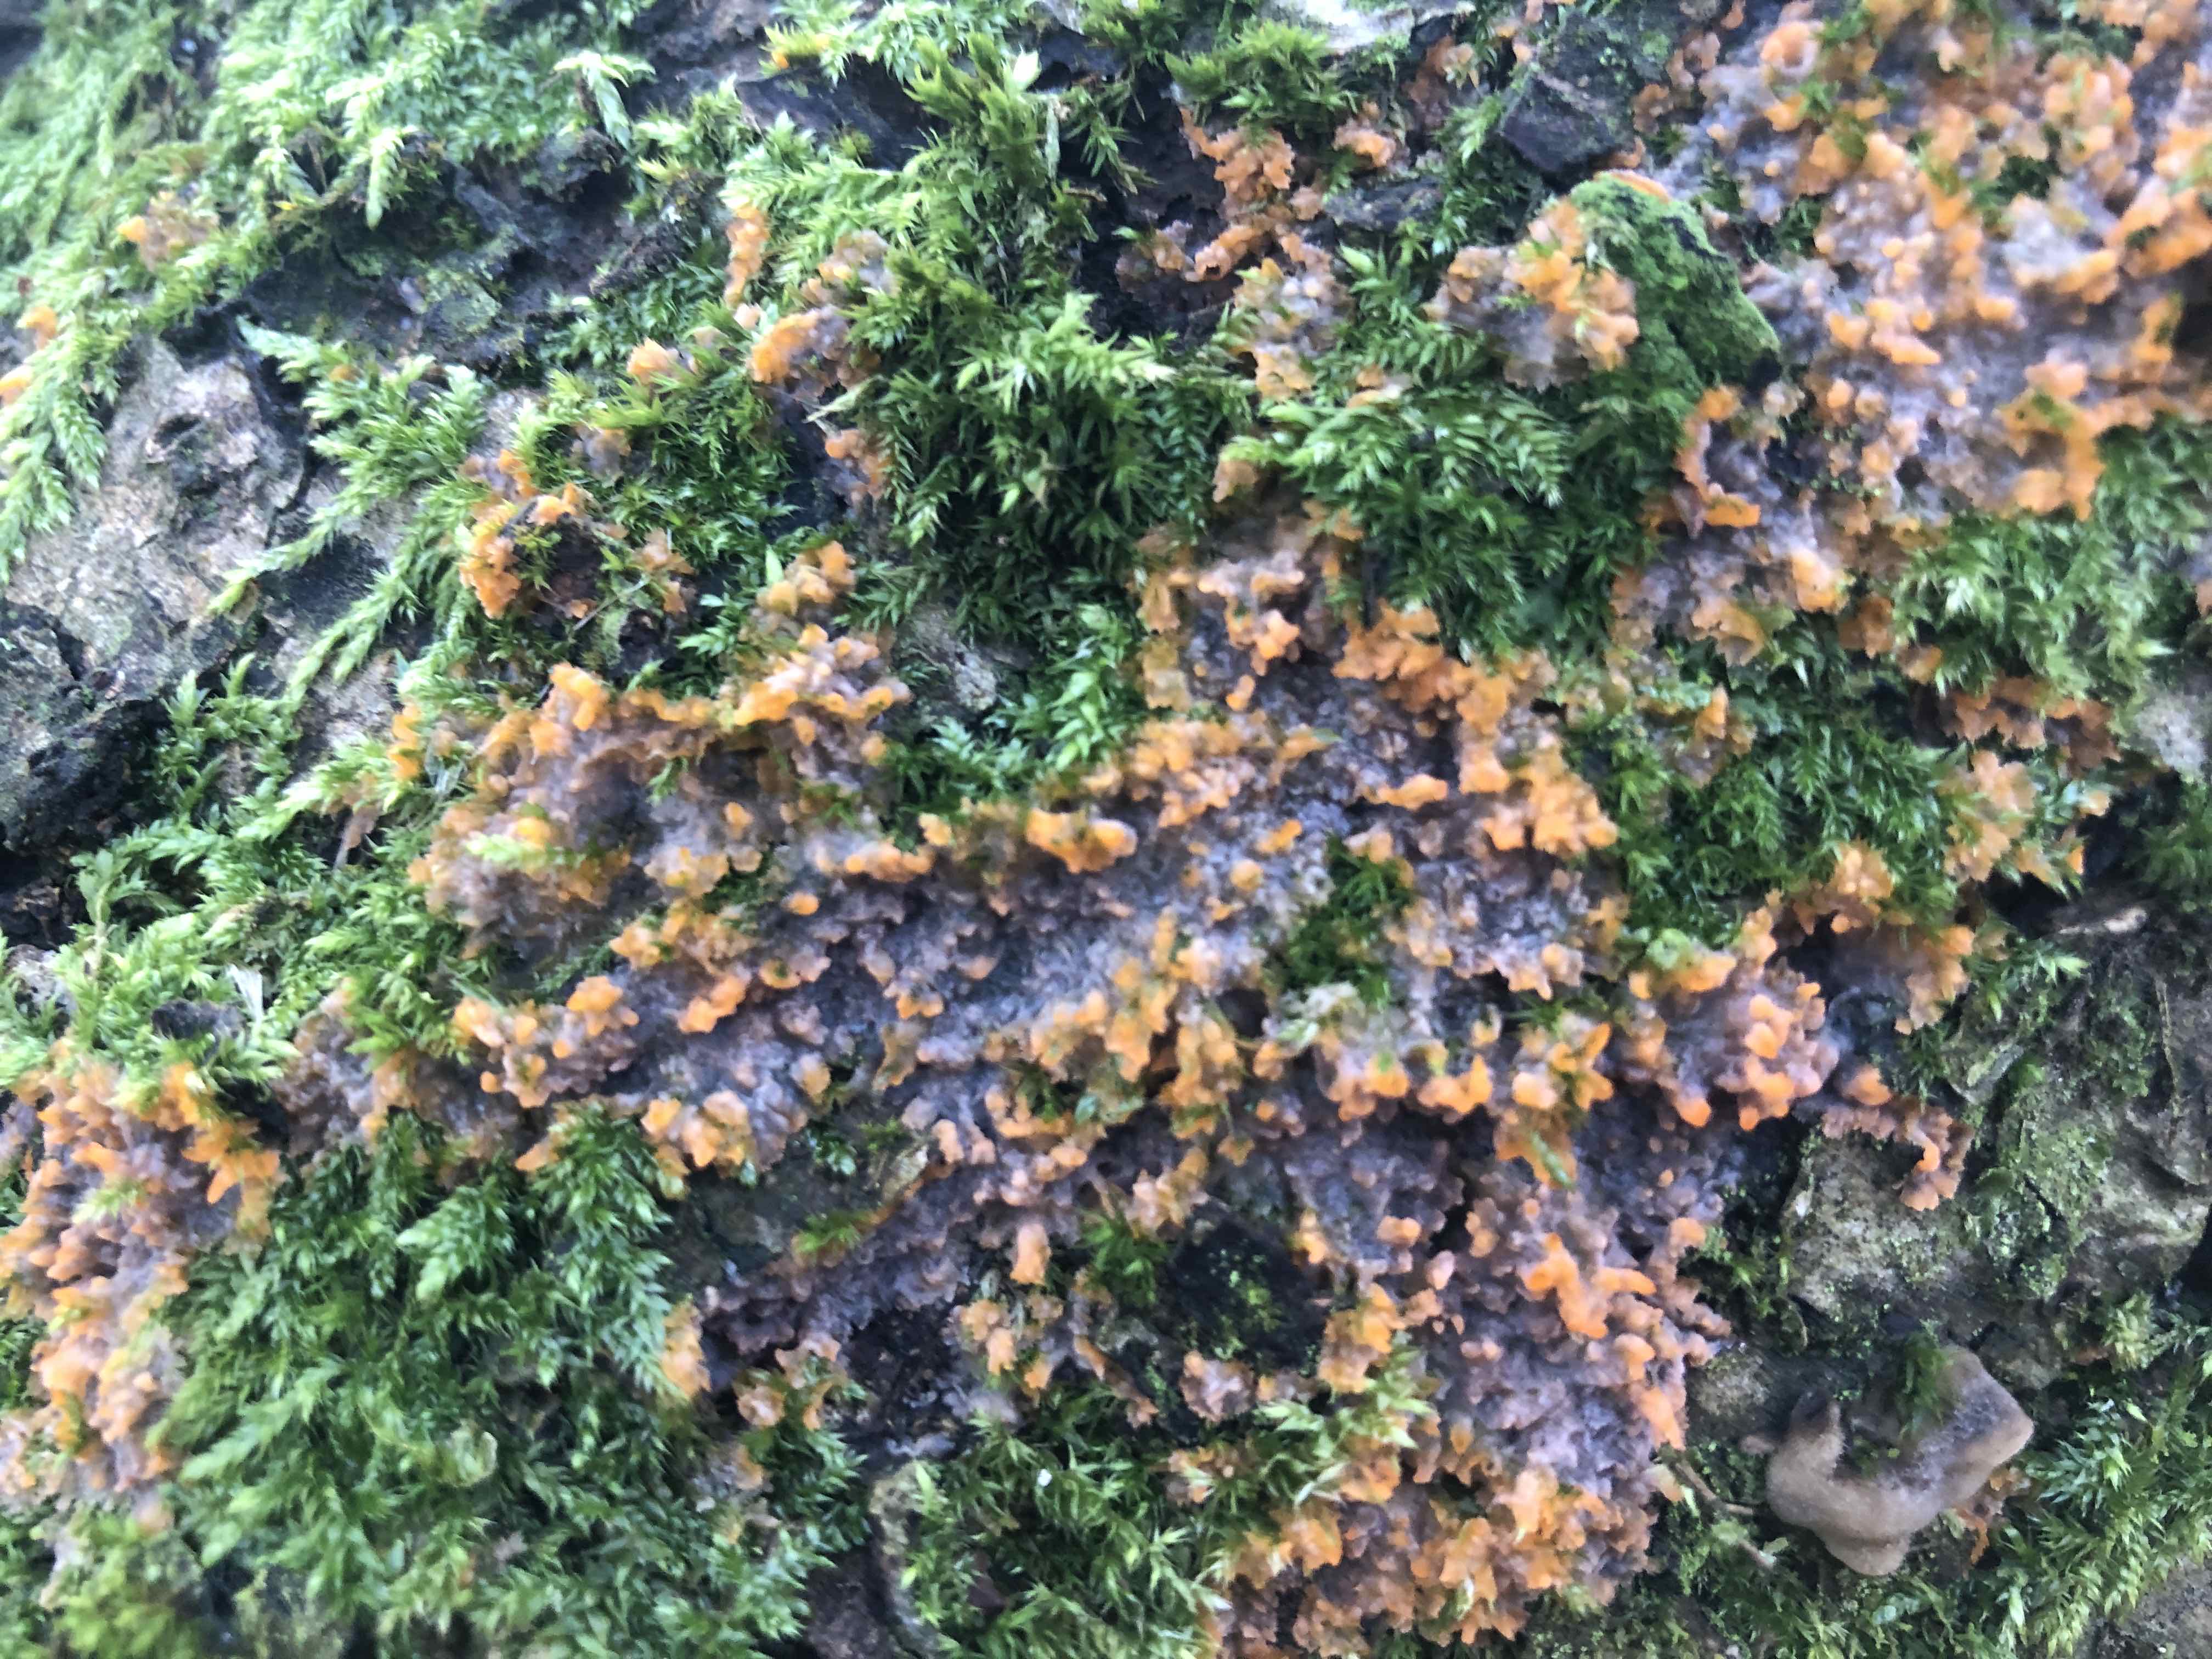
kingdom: Fungi
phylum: Basidiomycota
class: Agaricomycetes
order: Polyporales
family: Meruliaceae
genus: Phlebia
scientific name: Phlebia radiata
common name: stråle-åresvamp
